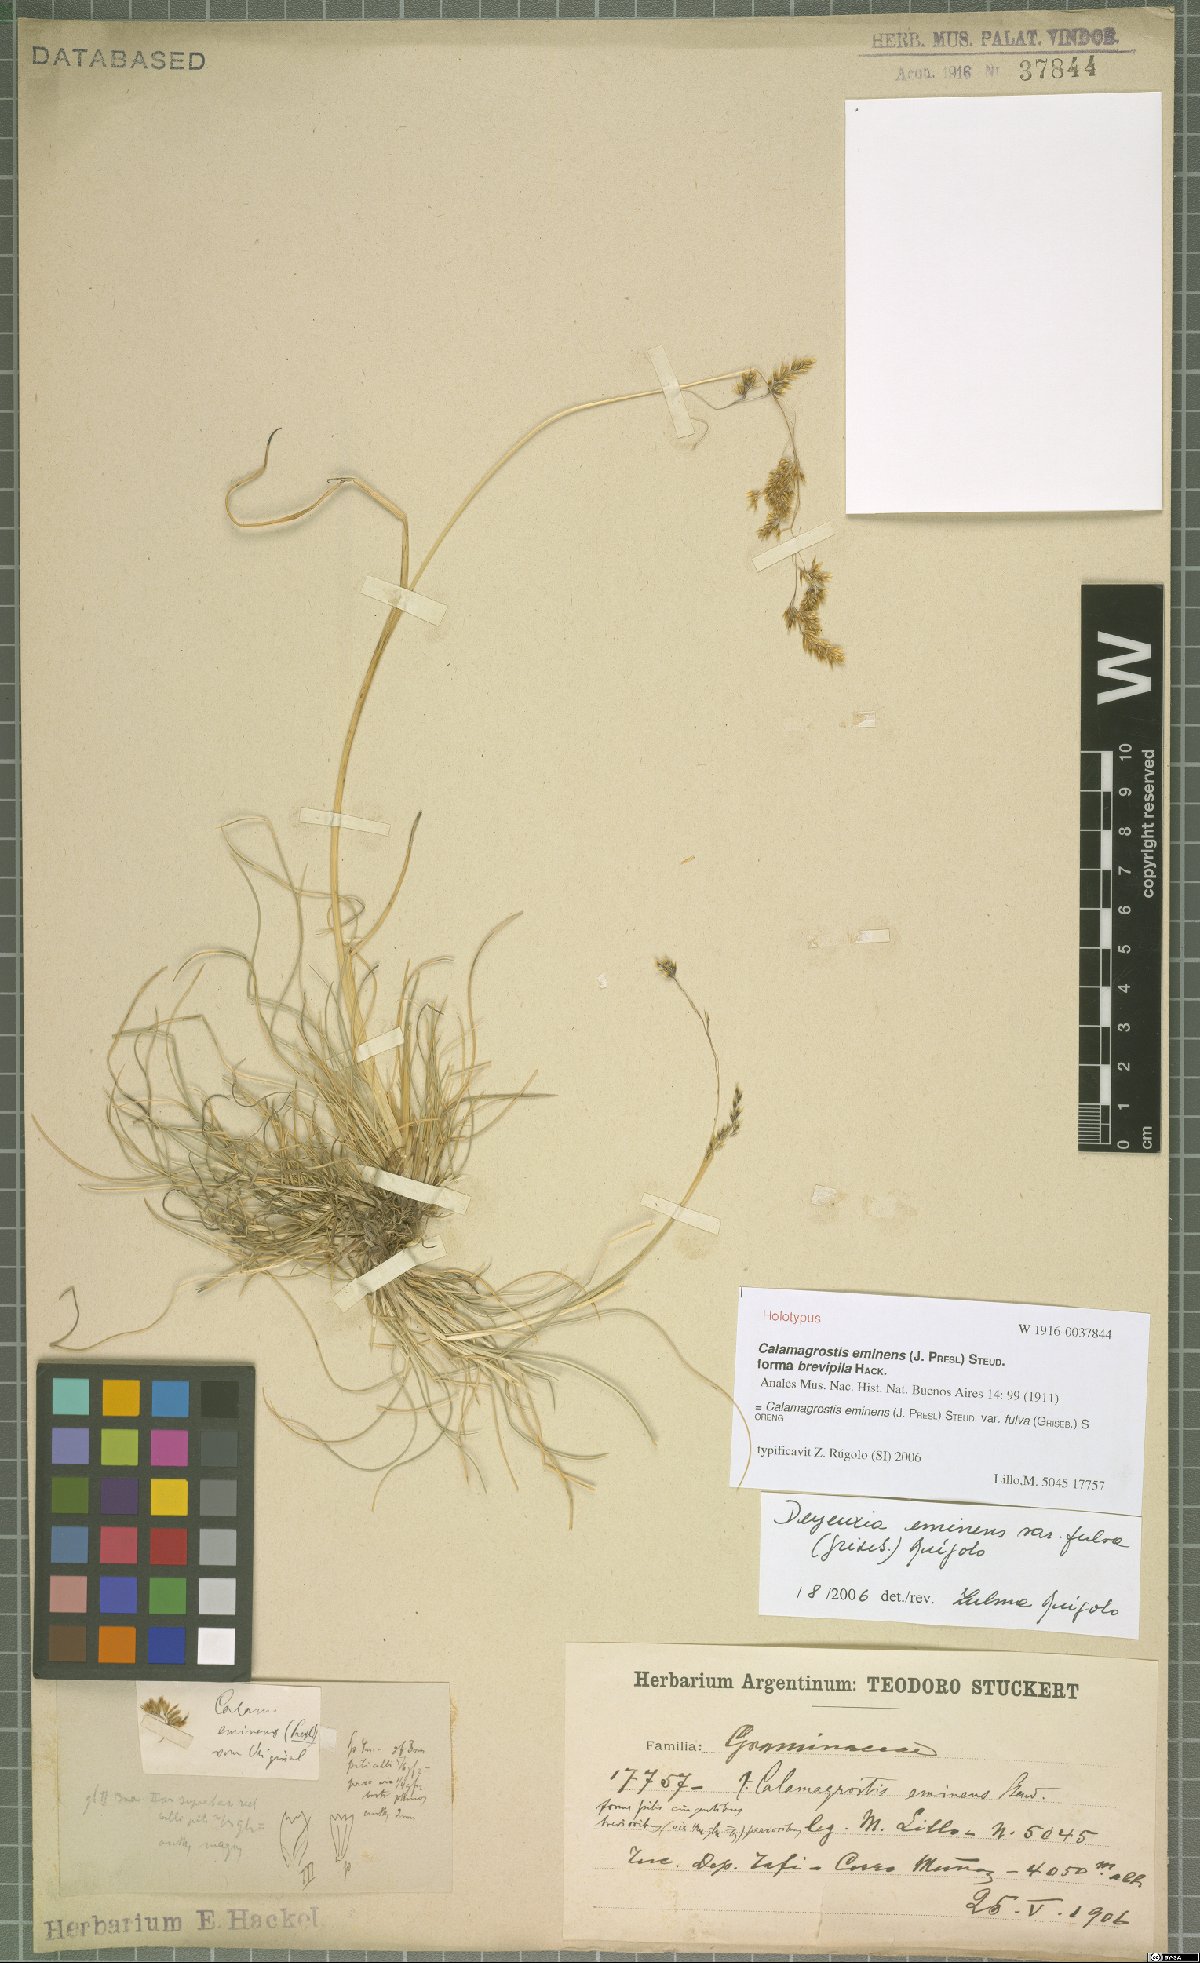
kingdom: Plantae
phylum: Tracheophyta
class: Liliopsida
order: Poales
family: Poaceae
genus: Deschampsia
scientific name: Deschampsia eminens
